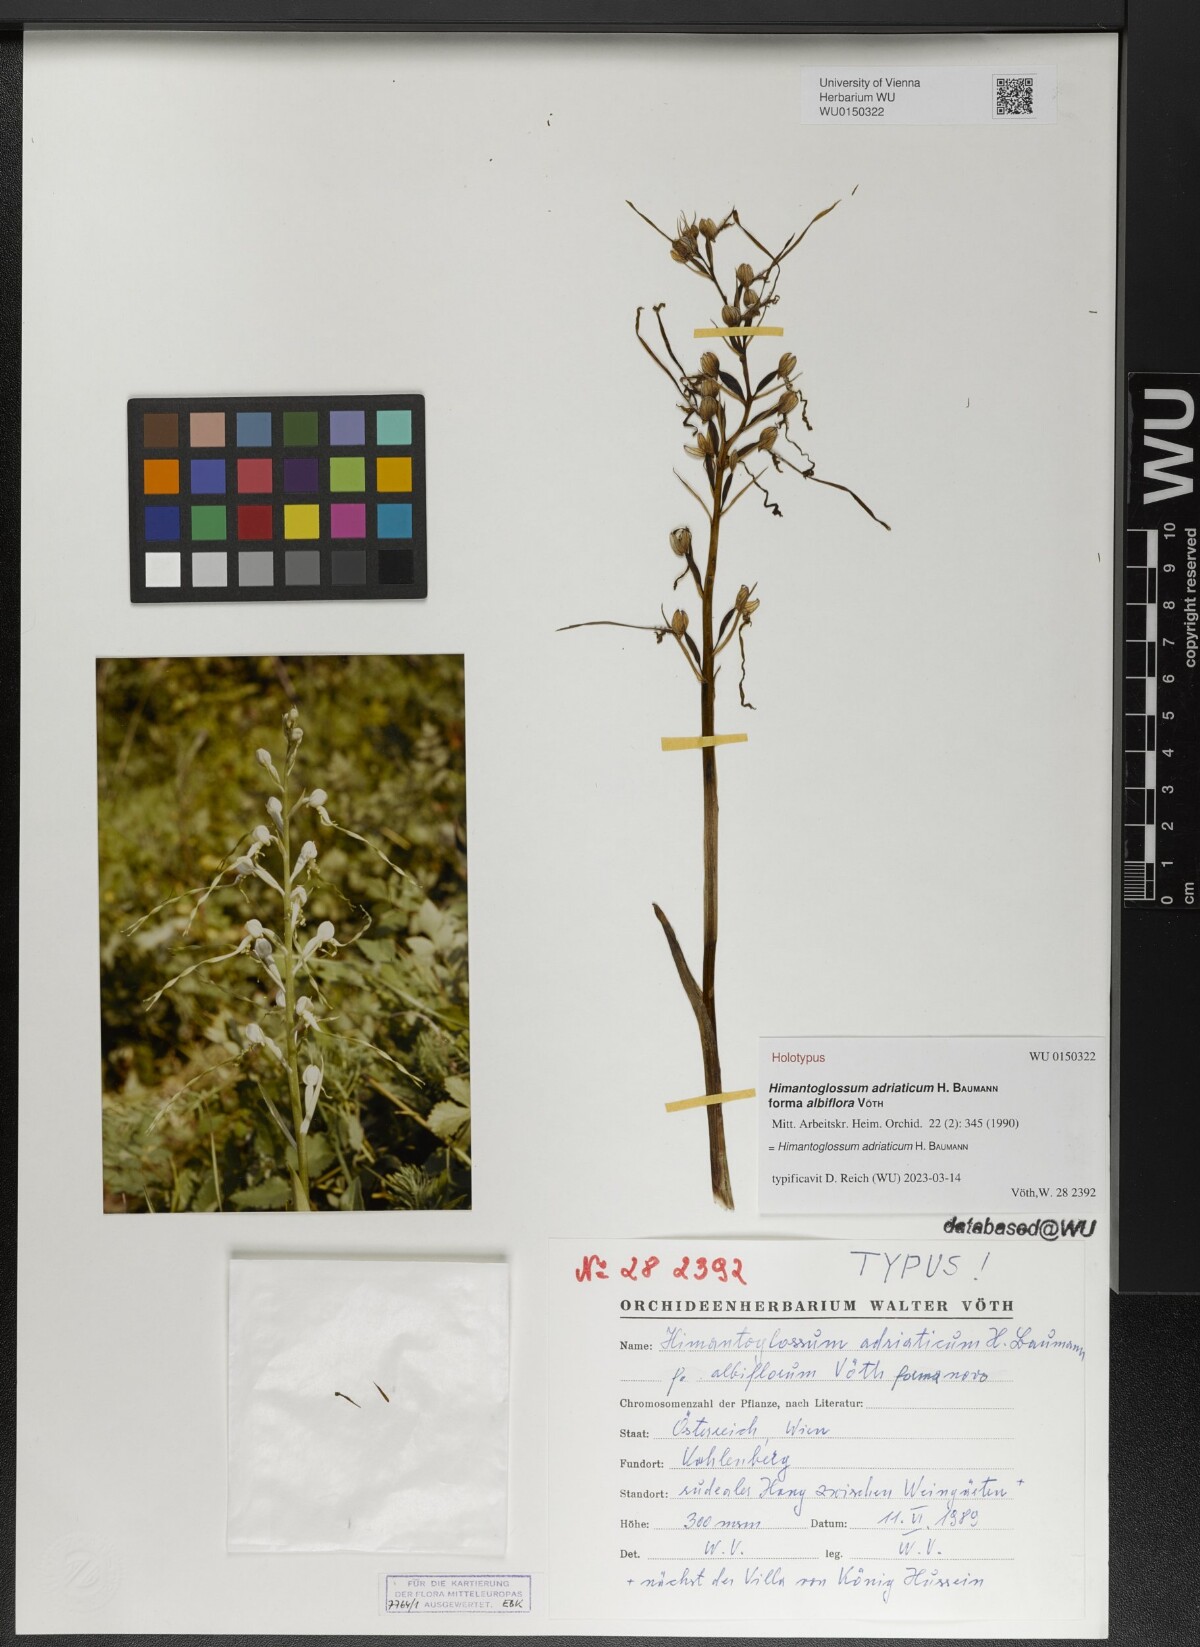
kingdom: Plantae
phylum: Tracheophyta
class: Liliopsida
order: Asparagales
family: Orchidaceae
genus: Himantoglossum
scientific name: Himantoglossum adriaticum
